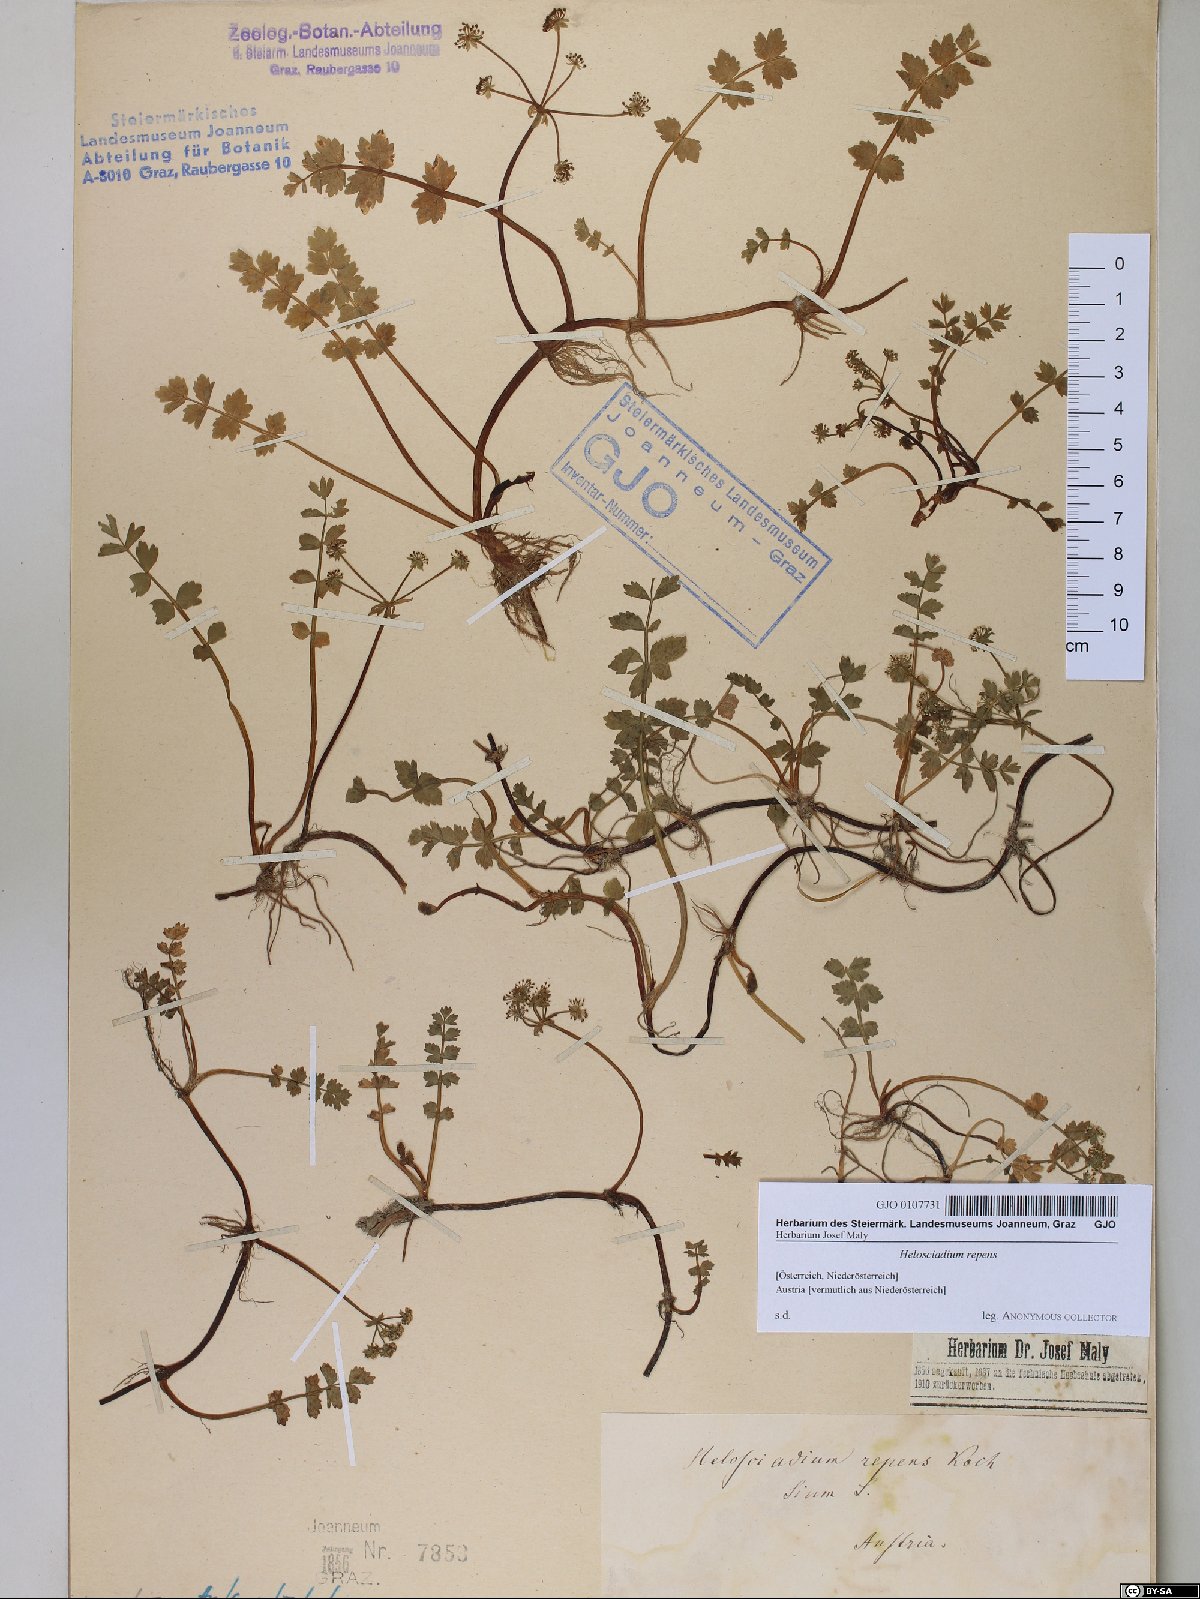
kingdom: Plantae
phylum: Tracheophyta
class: Magnoliopsida
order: Apiales
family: Apiaceae
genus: Helosciadium
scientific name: Helosciadium repens
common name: Creeping marshwort
